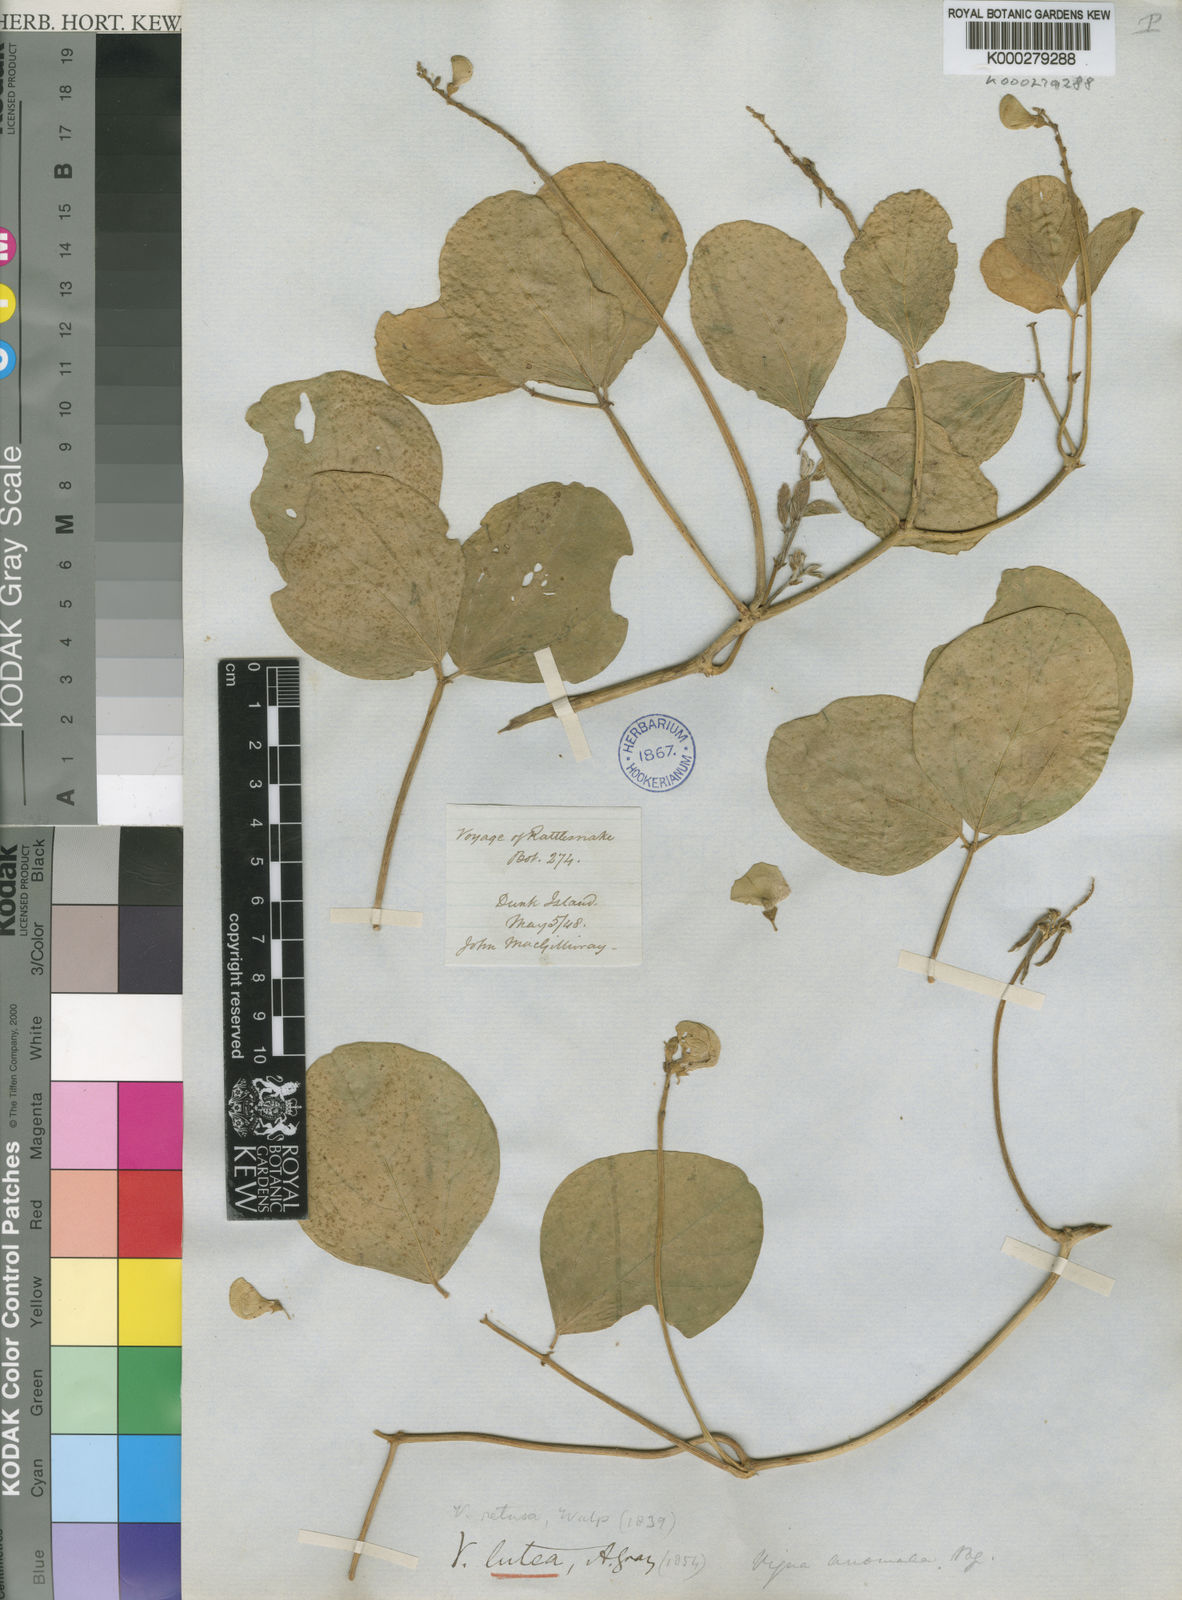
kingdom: Plantae
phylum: Tracheophyta
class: Magnoliopsida
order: Fabales
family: Fabaceae
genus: Vigna
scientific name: Vigna luteola
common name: Hairypod cowpea
